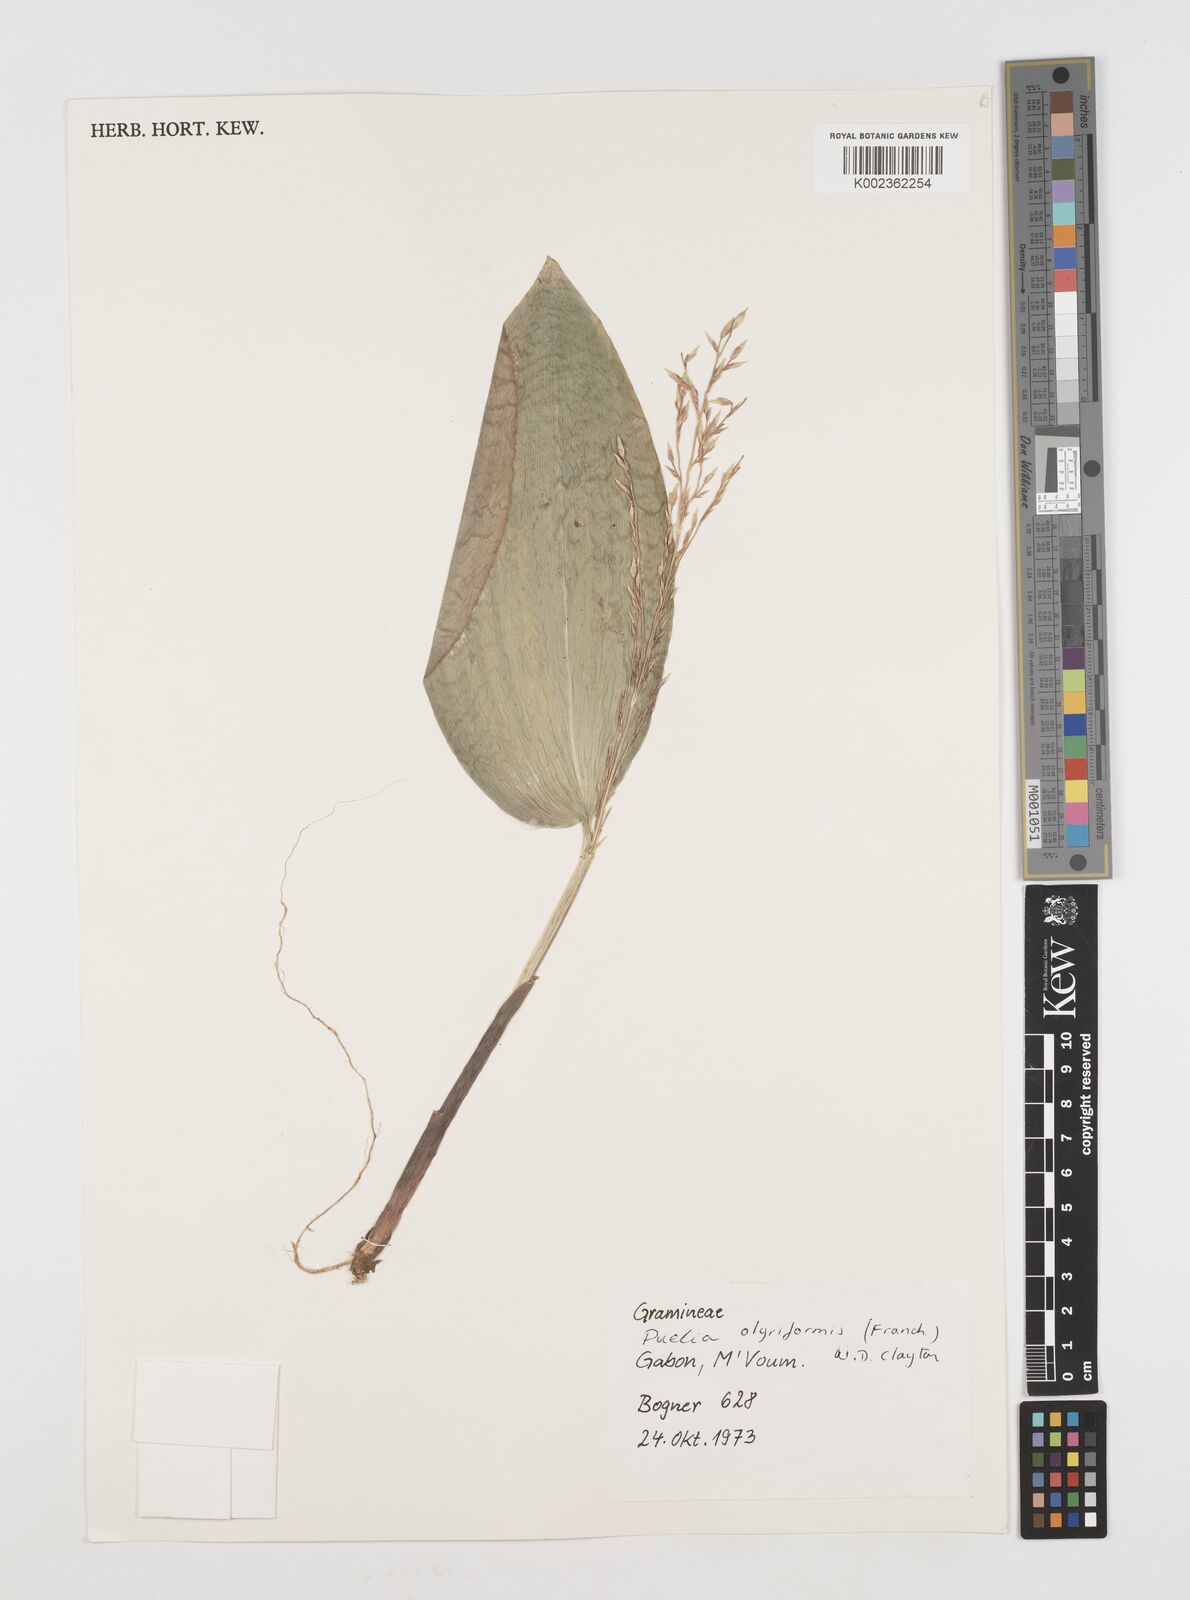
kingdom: Plantae
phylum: Tracheophyta
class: Liliopsida
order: Poales
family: Poaceae
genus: Puelia
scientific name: Puelia olyriformis
